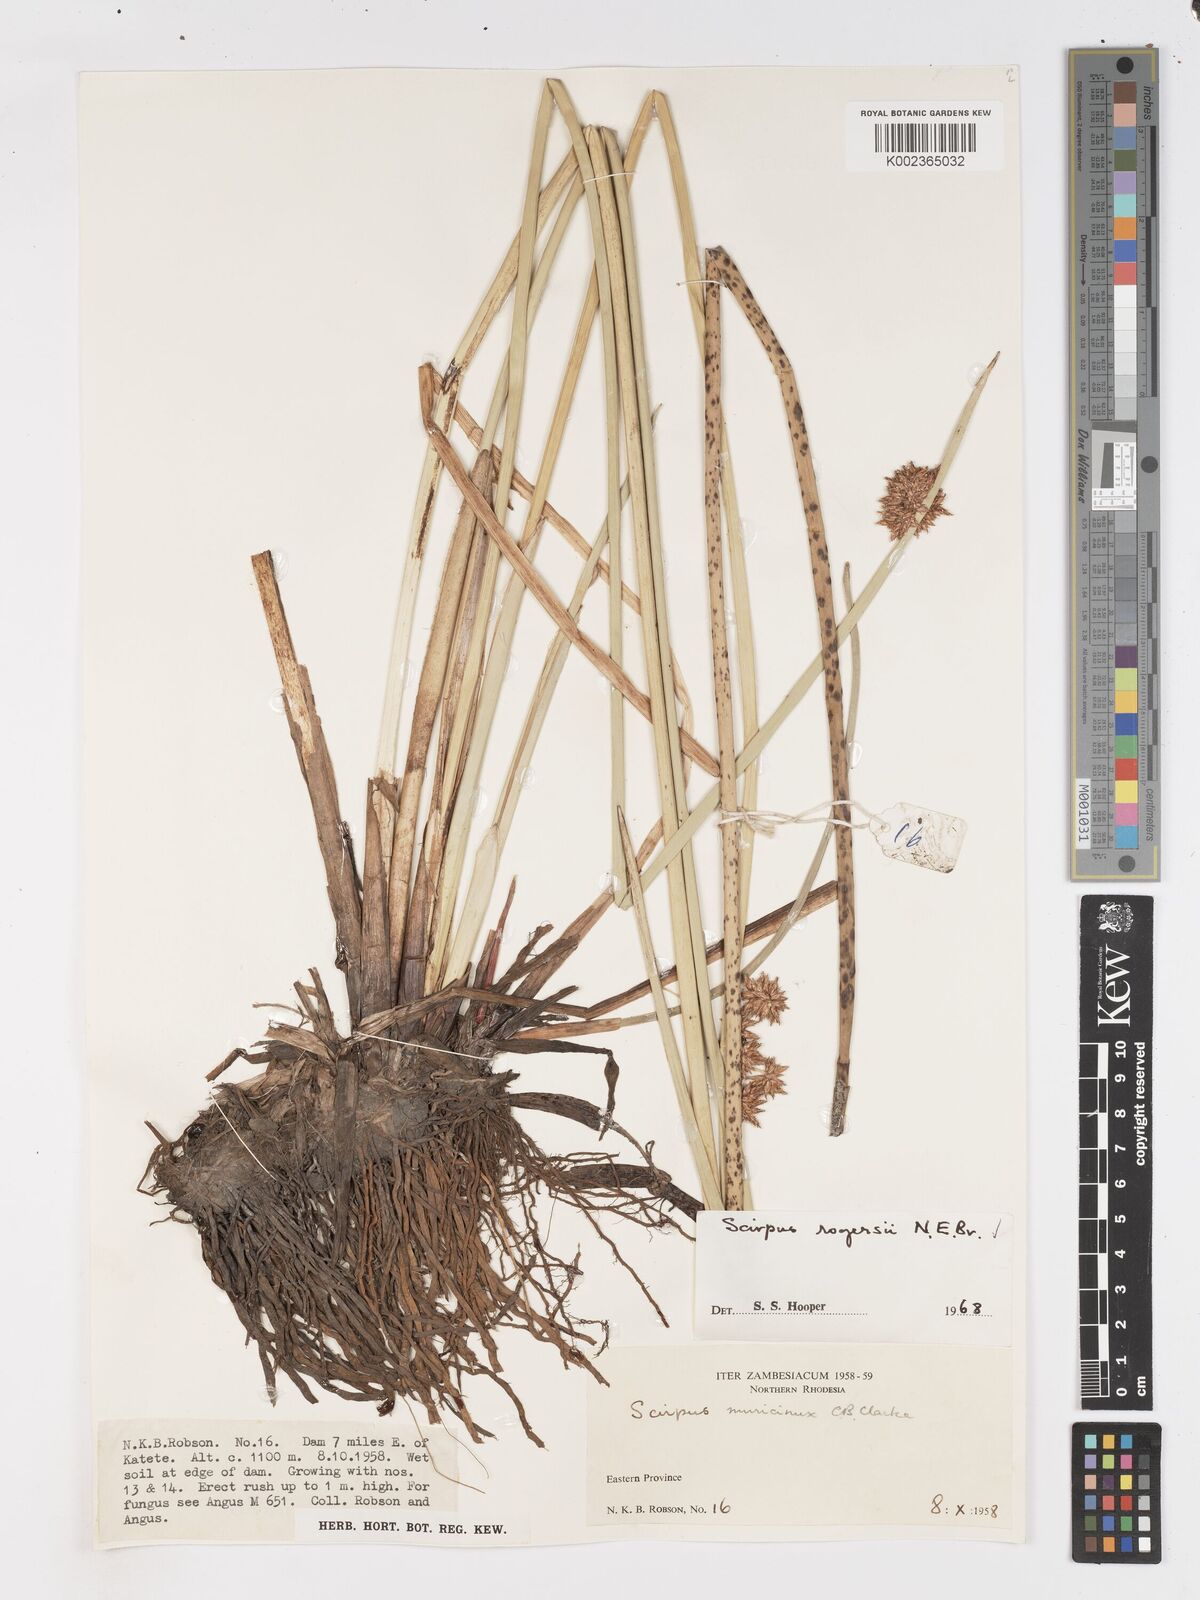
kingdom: Plantae
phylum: Tracheophyta
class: Liliopsida
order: Poales
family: Cyperaceae
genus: Schoenoplectiella
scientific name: Schoenoplectiella rogersii
